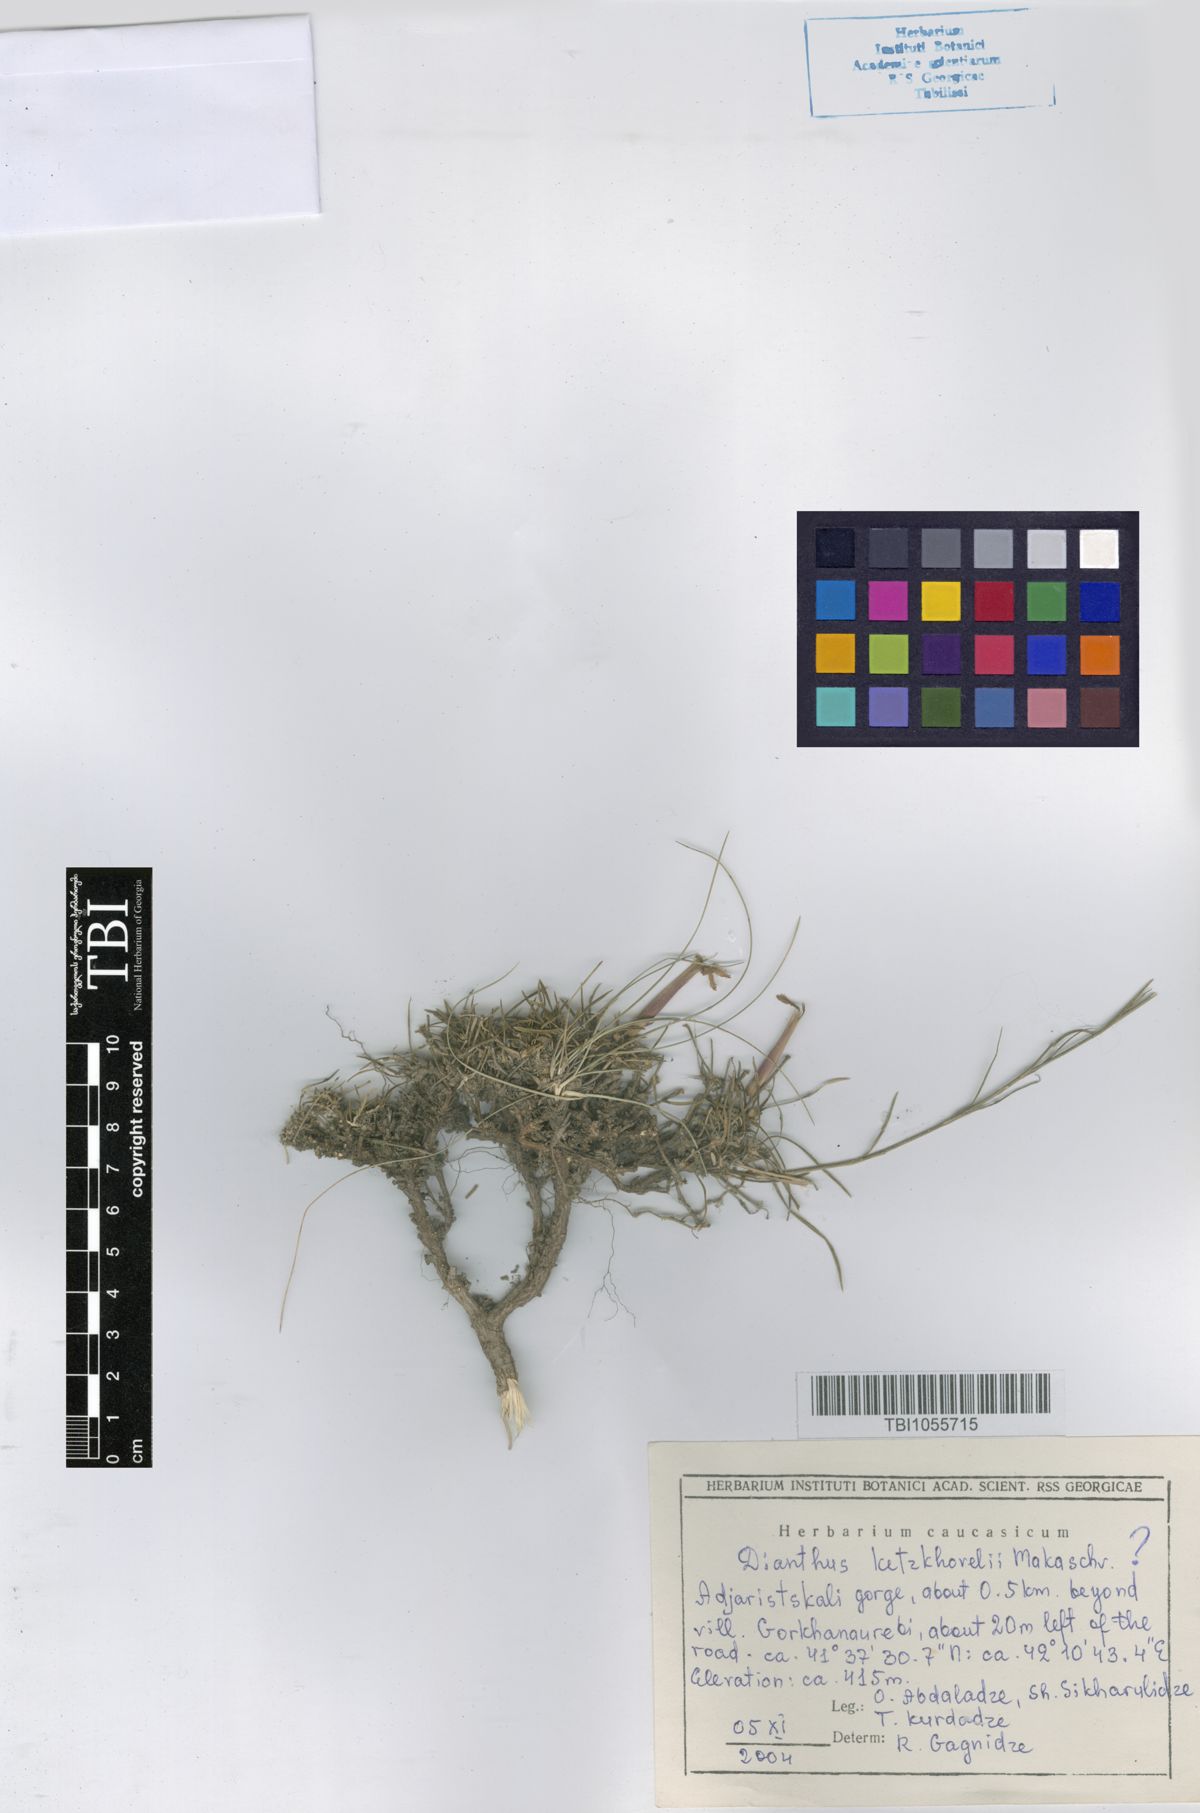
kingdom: Plantae
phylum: Tracheophyta
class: Magnoliopsida
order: Caryophyllales
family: Caryophyllaceae
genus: Dianthus
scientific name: Dianthus orientalis
